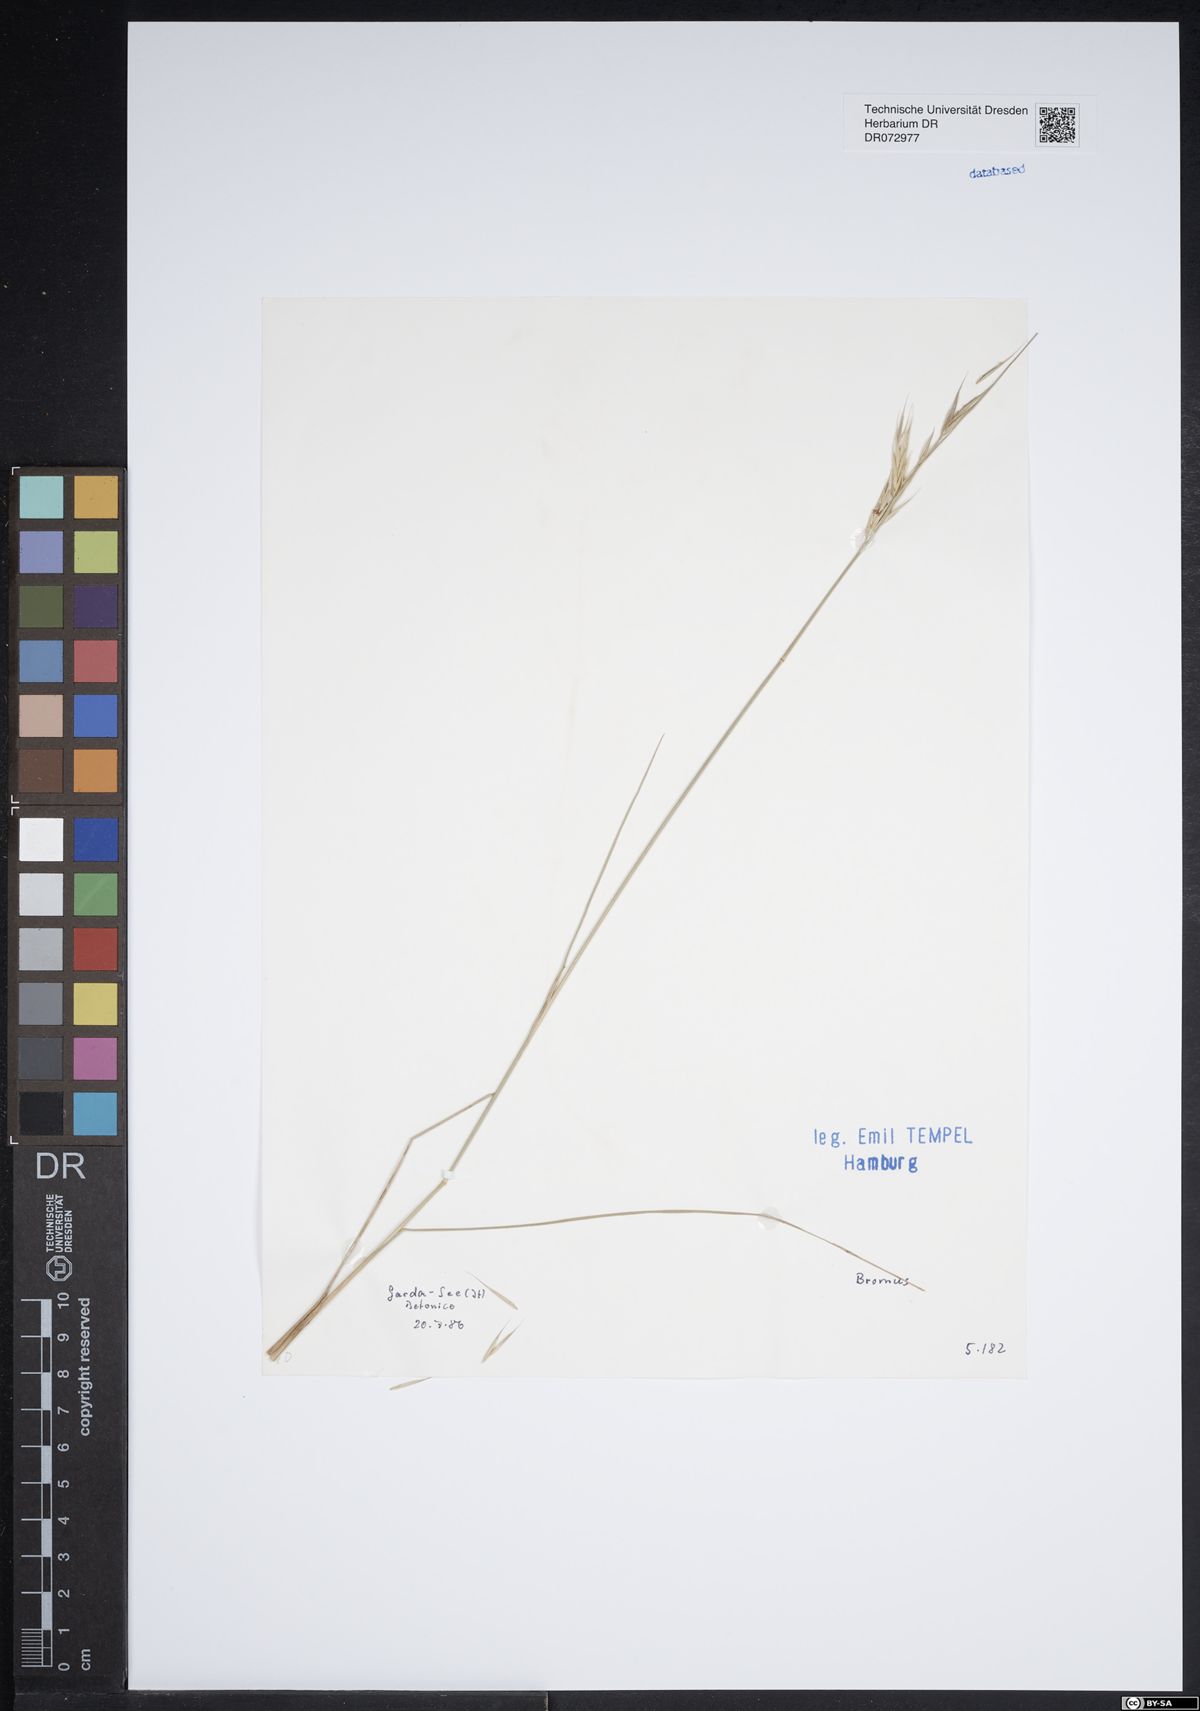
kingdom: Plantae
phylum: Tracheophyta
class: Liliopsida
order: Poales
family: Poaceae
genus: Bromus
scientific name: Bromus
